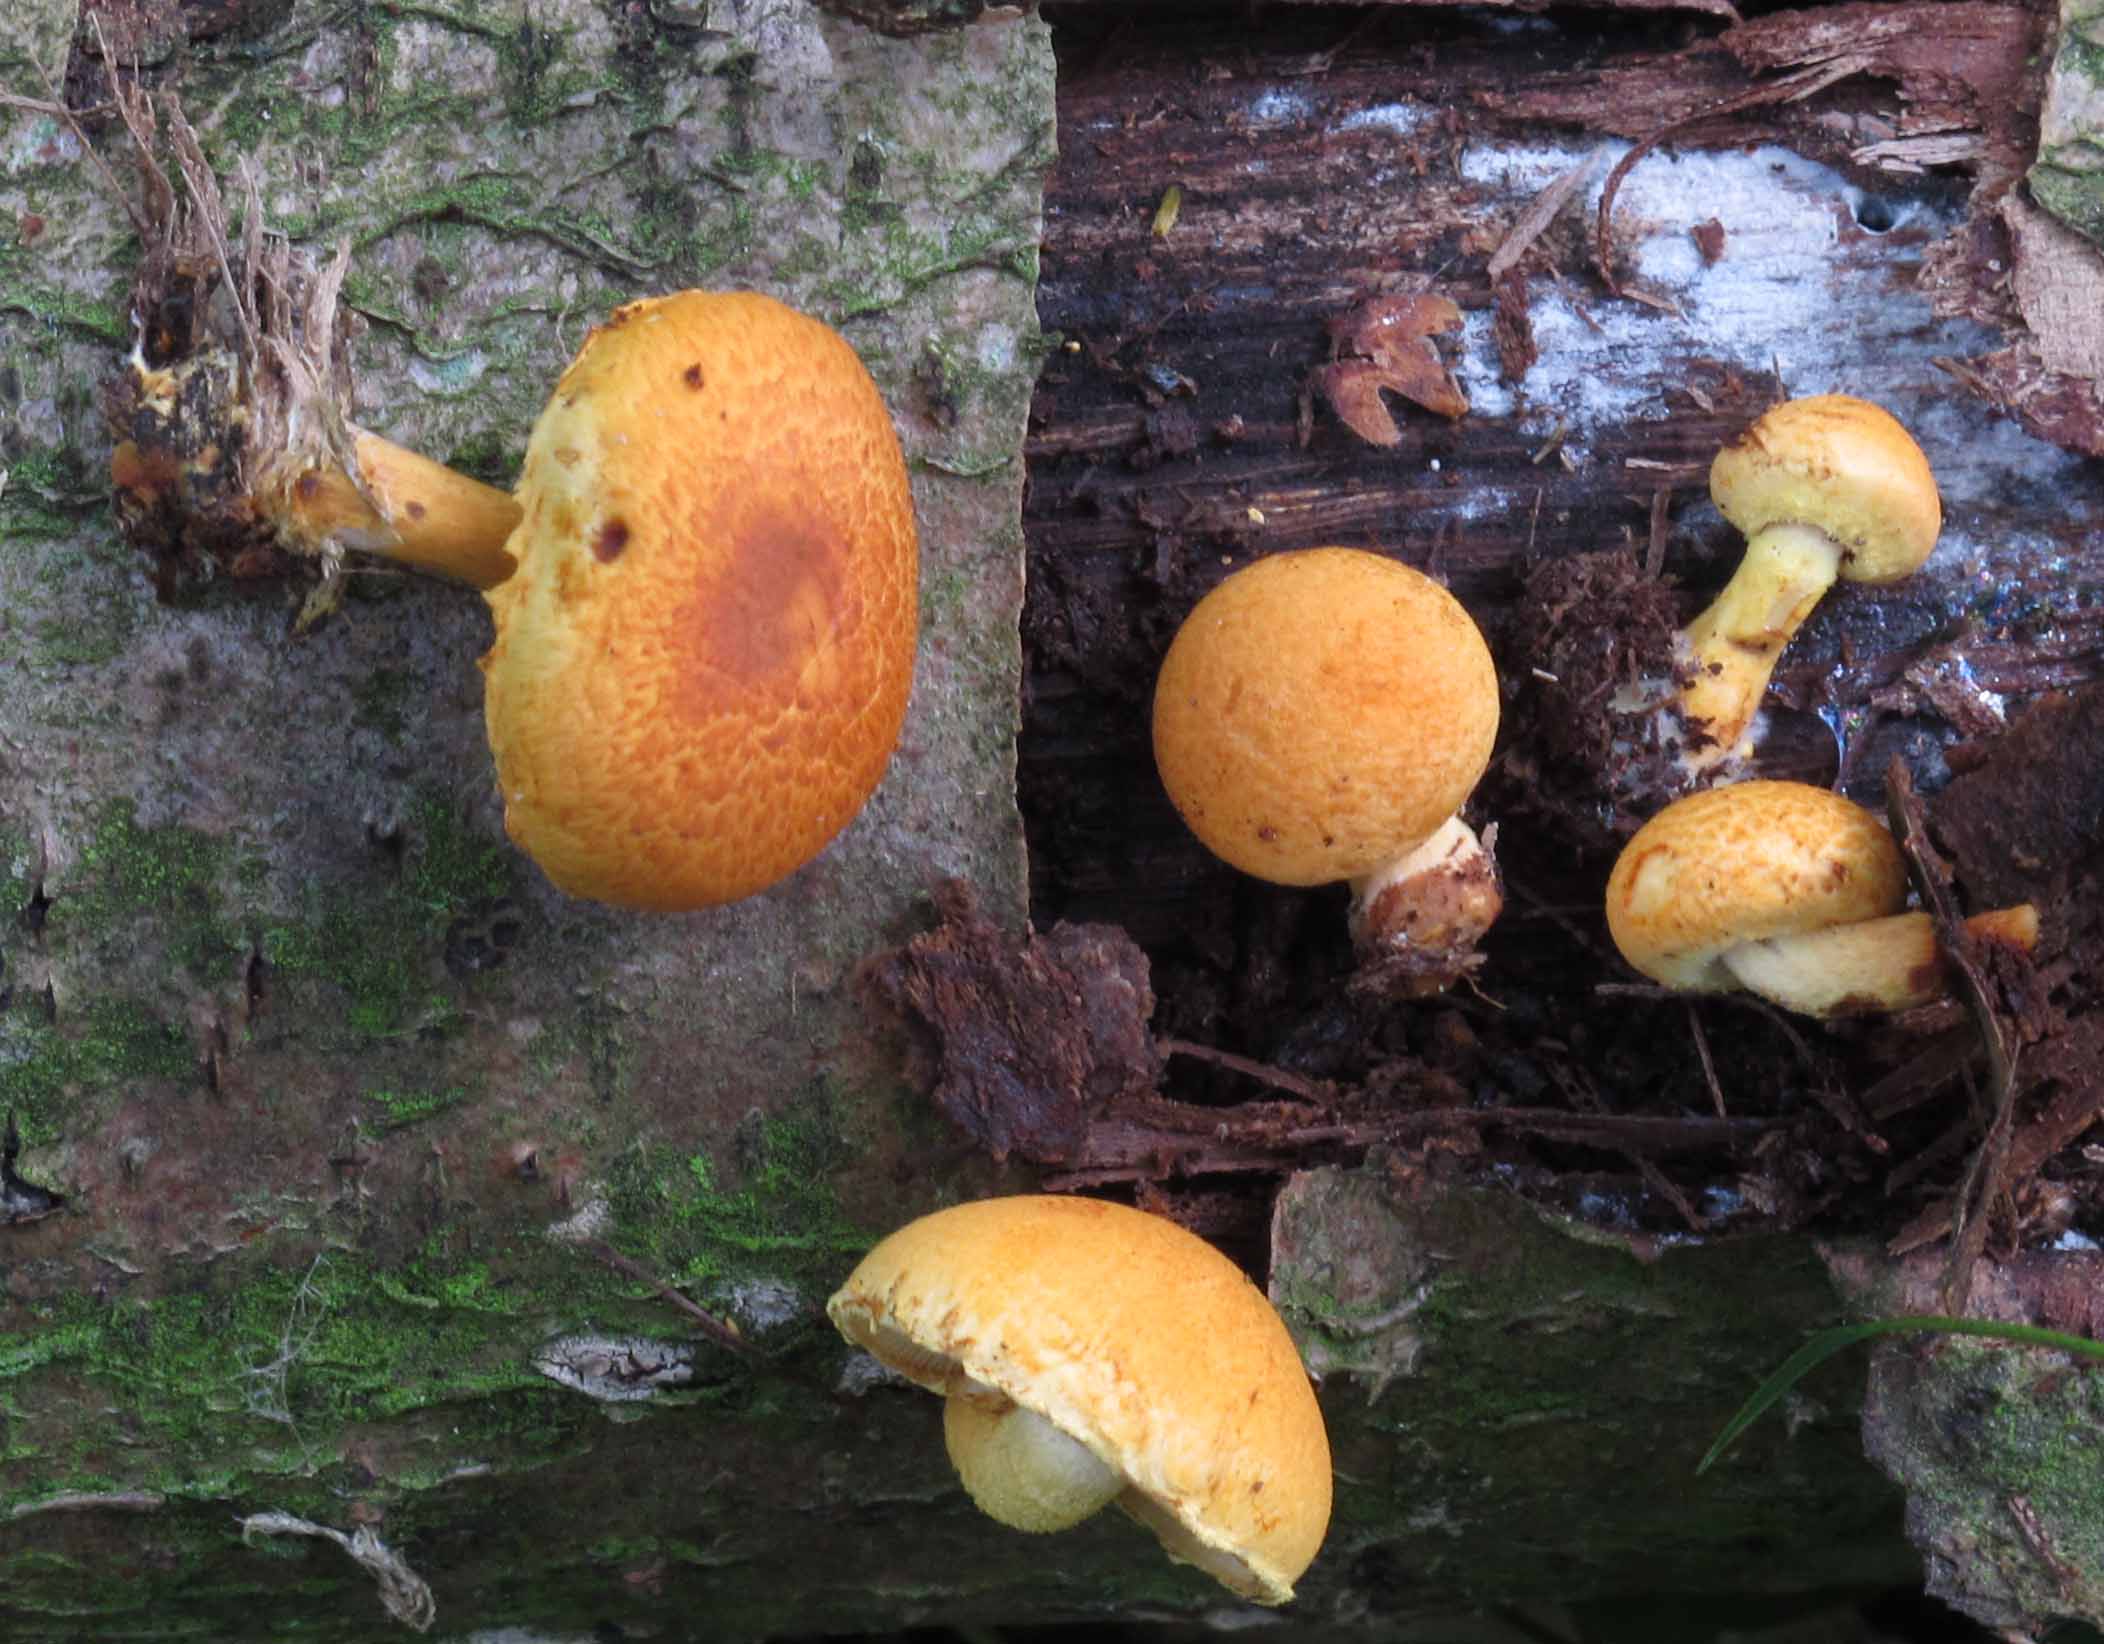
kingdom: Fungi
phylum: Basidiomycota
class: Agaricomycetes
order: Agaricales
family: Strophariaceae
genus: Pholiota
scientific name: Pholiota tuberculosa
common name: finskællet skælhat
